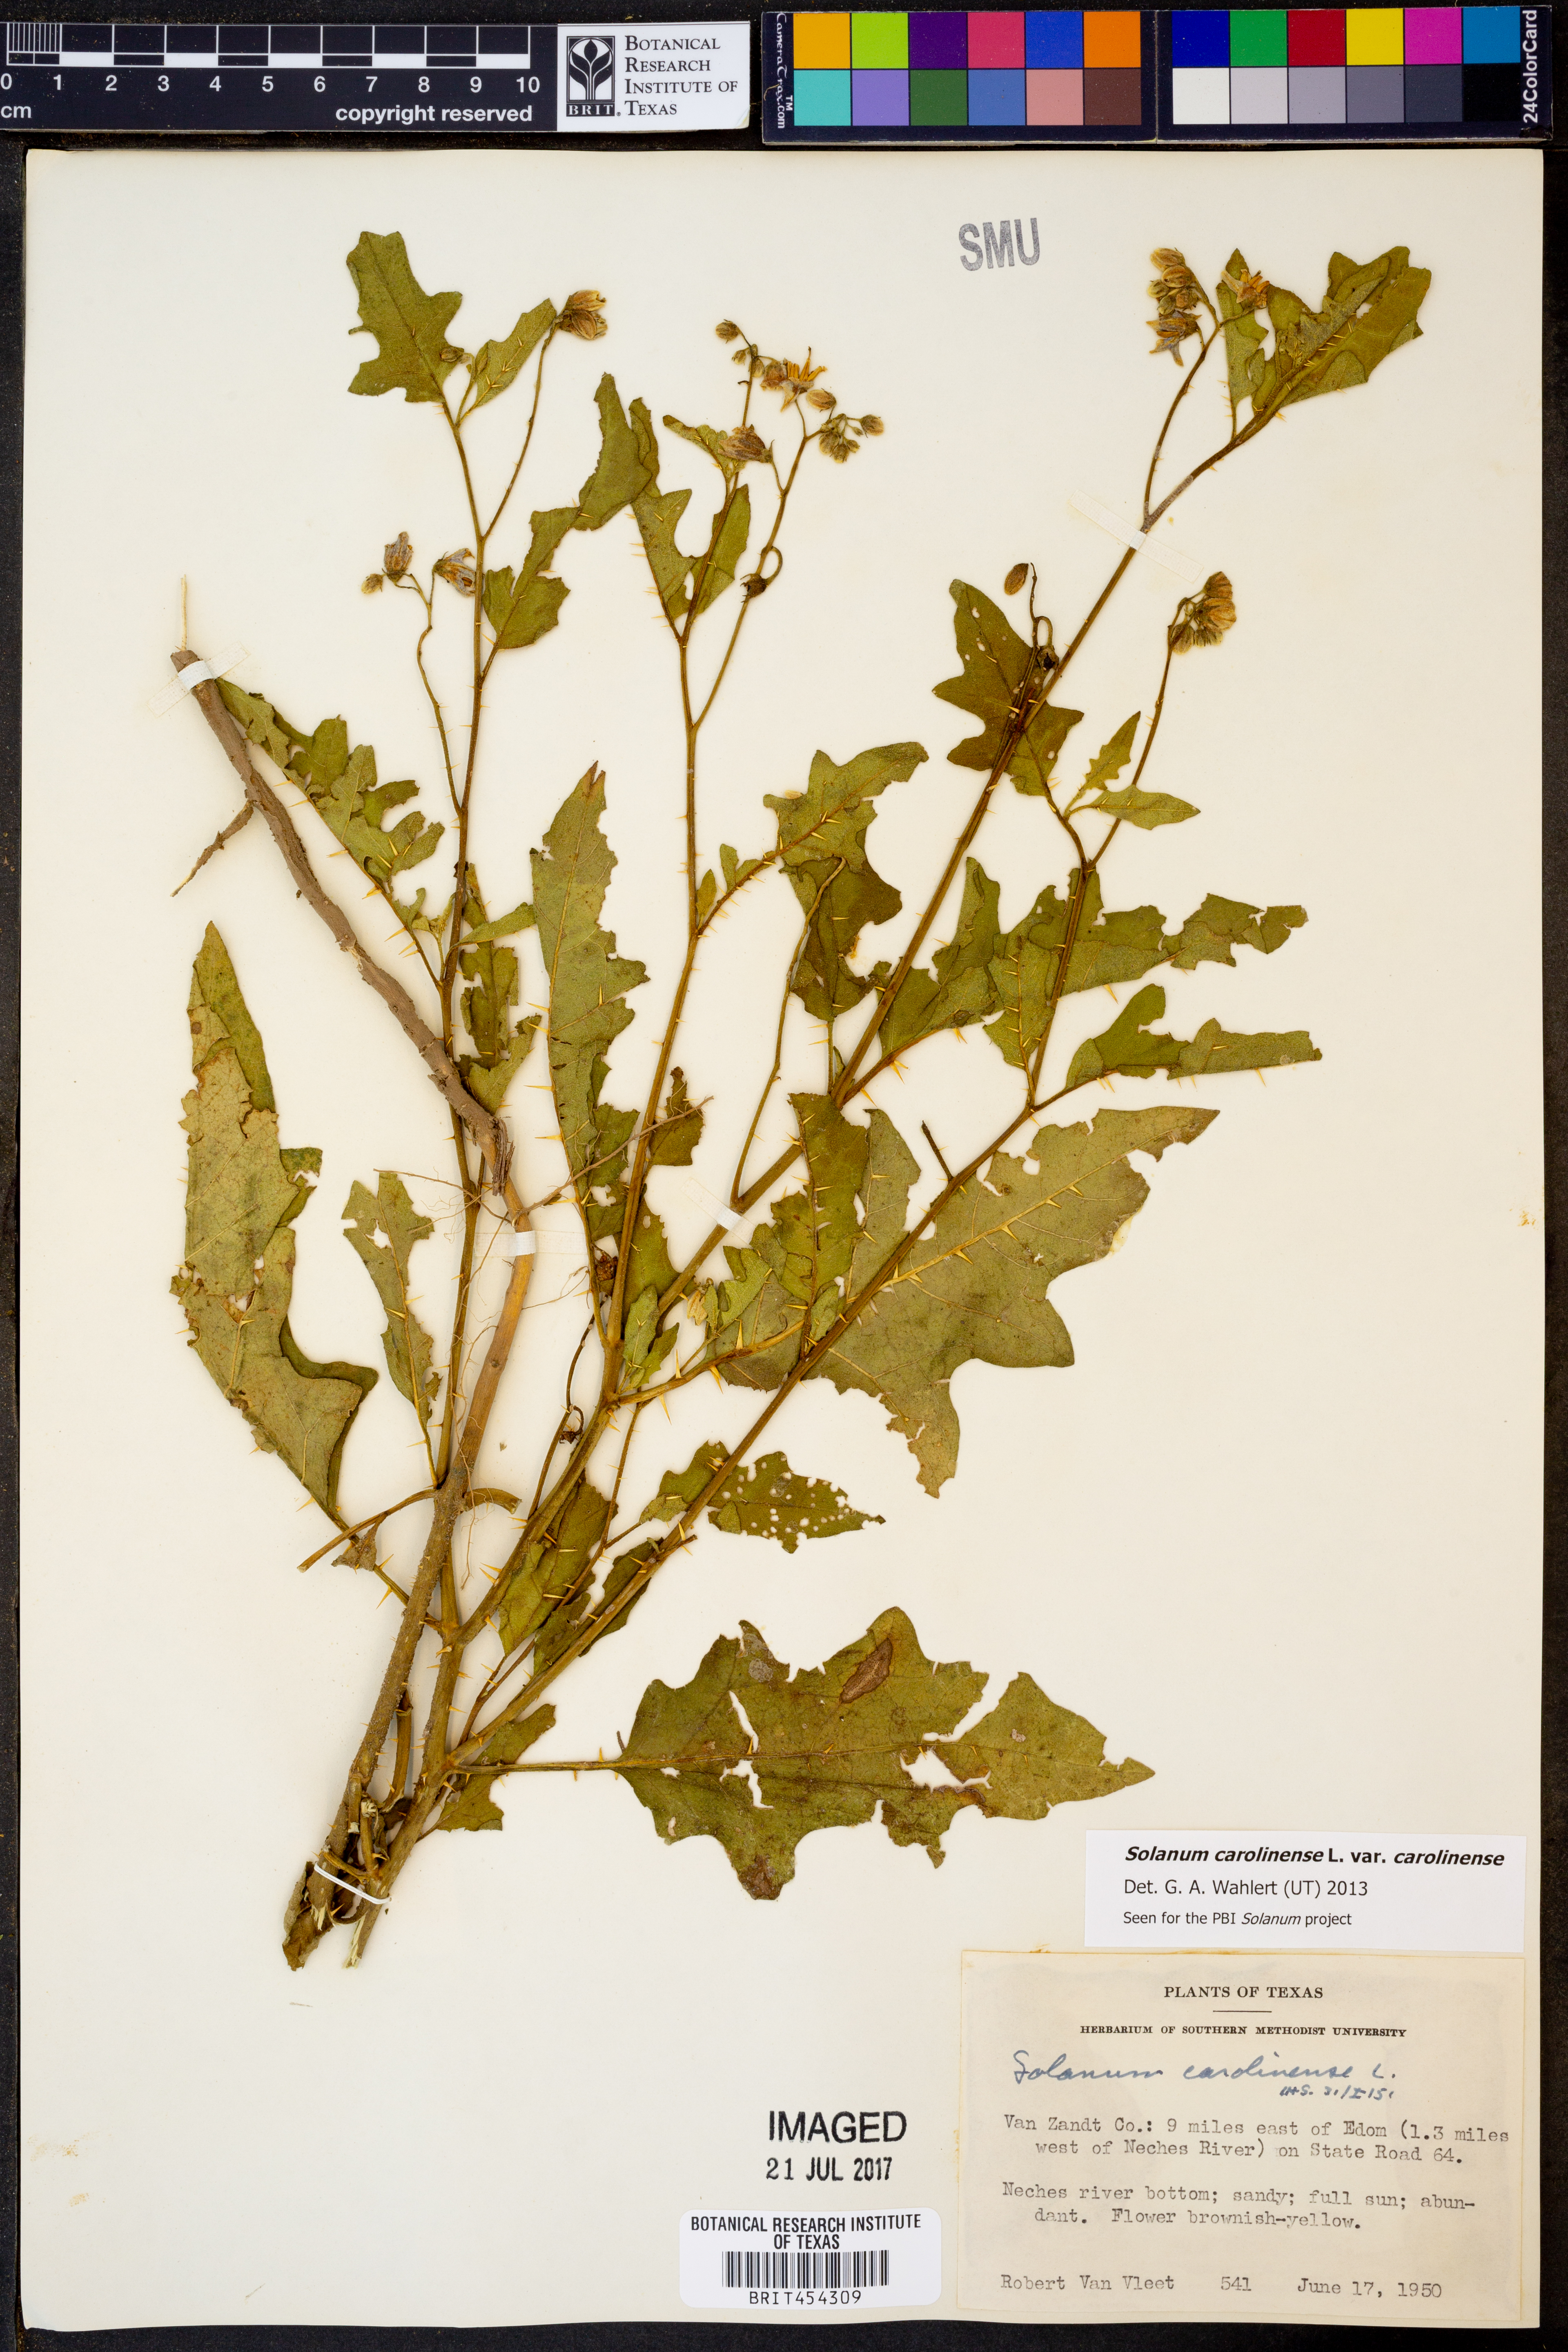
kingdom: Plantae
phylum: Tracheophyta
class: Magnoliopsida
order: Solanales
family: Solanaceae
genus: Solanum
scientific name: Solanum carolinense
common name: Horse-nettle
